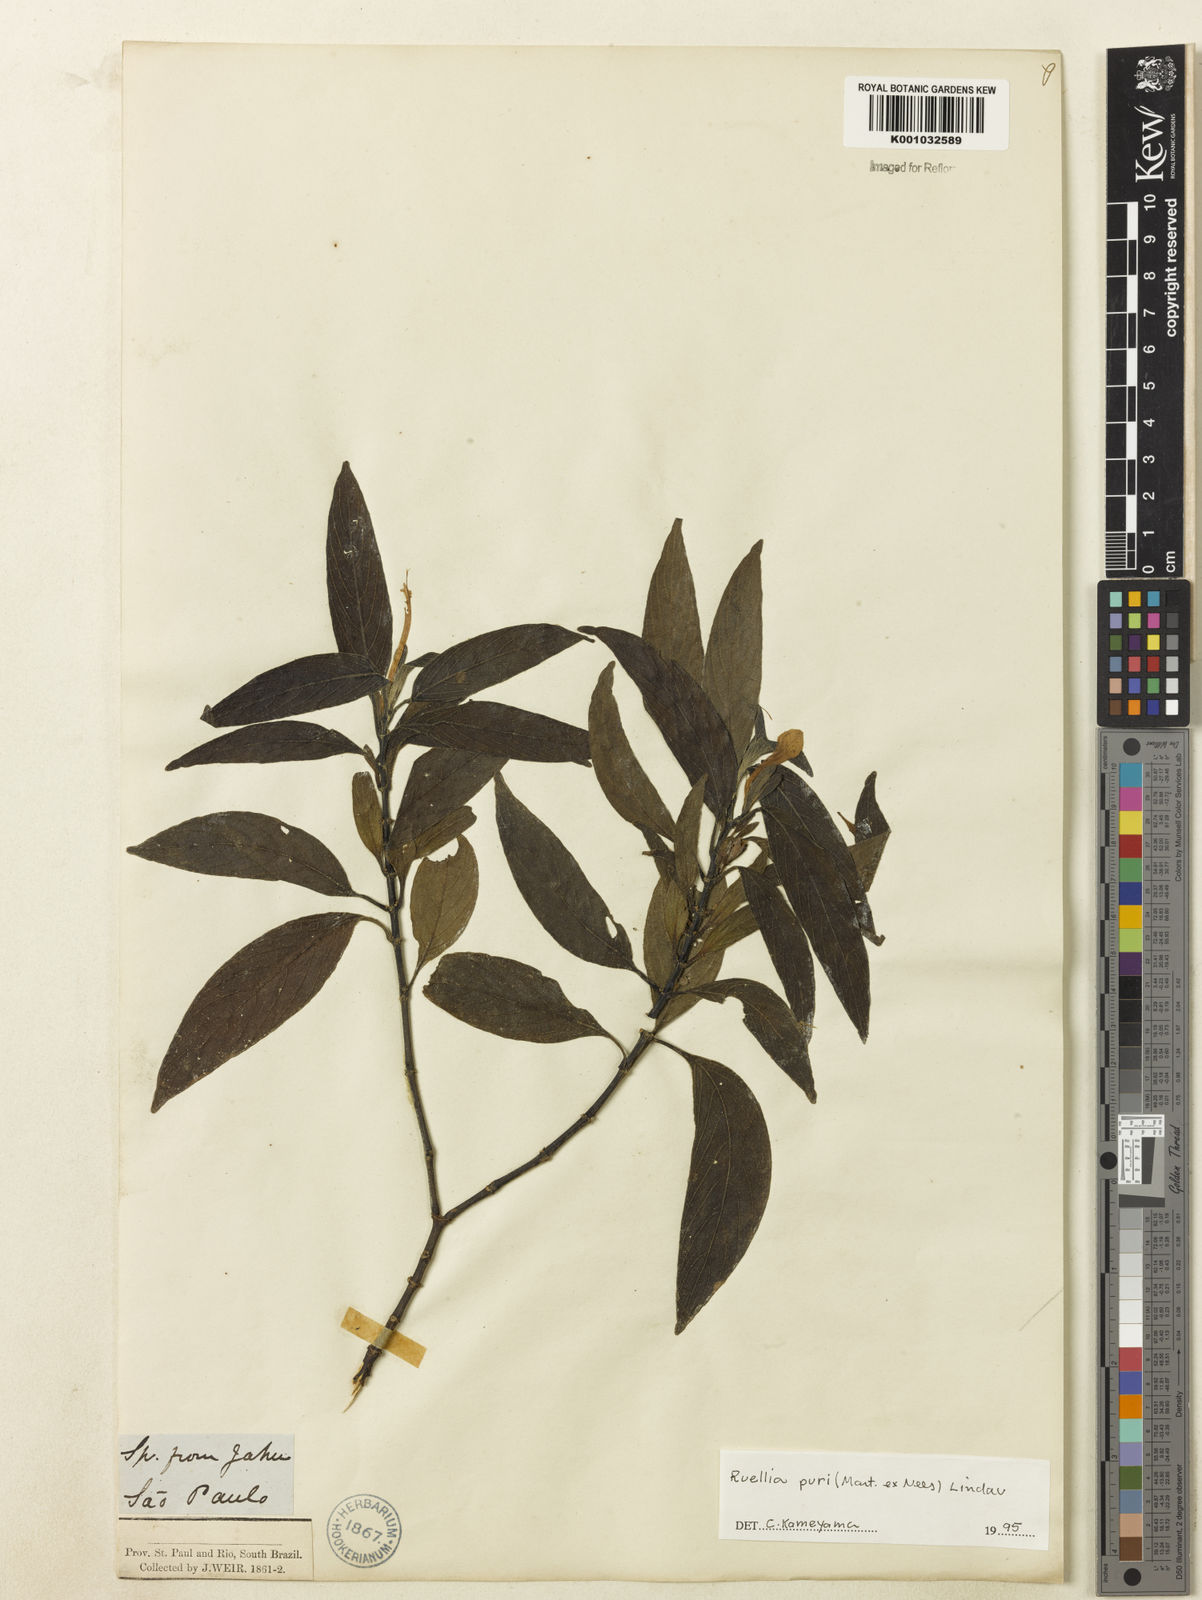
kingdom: Plantae
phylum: Tracheophyta
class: Magnoliopsida
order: Lamiales
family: Acanthaceae
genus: Ruellia
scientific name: Ruellia jussieuoides
